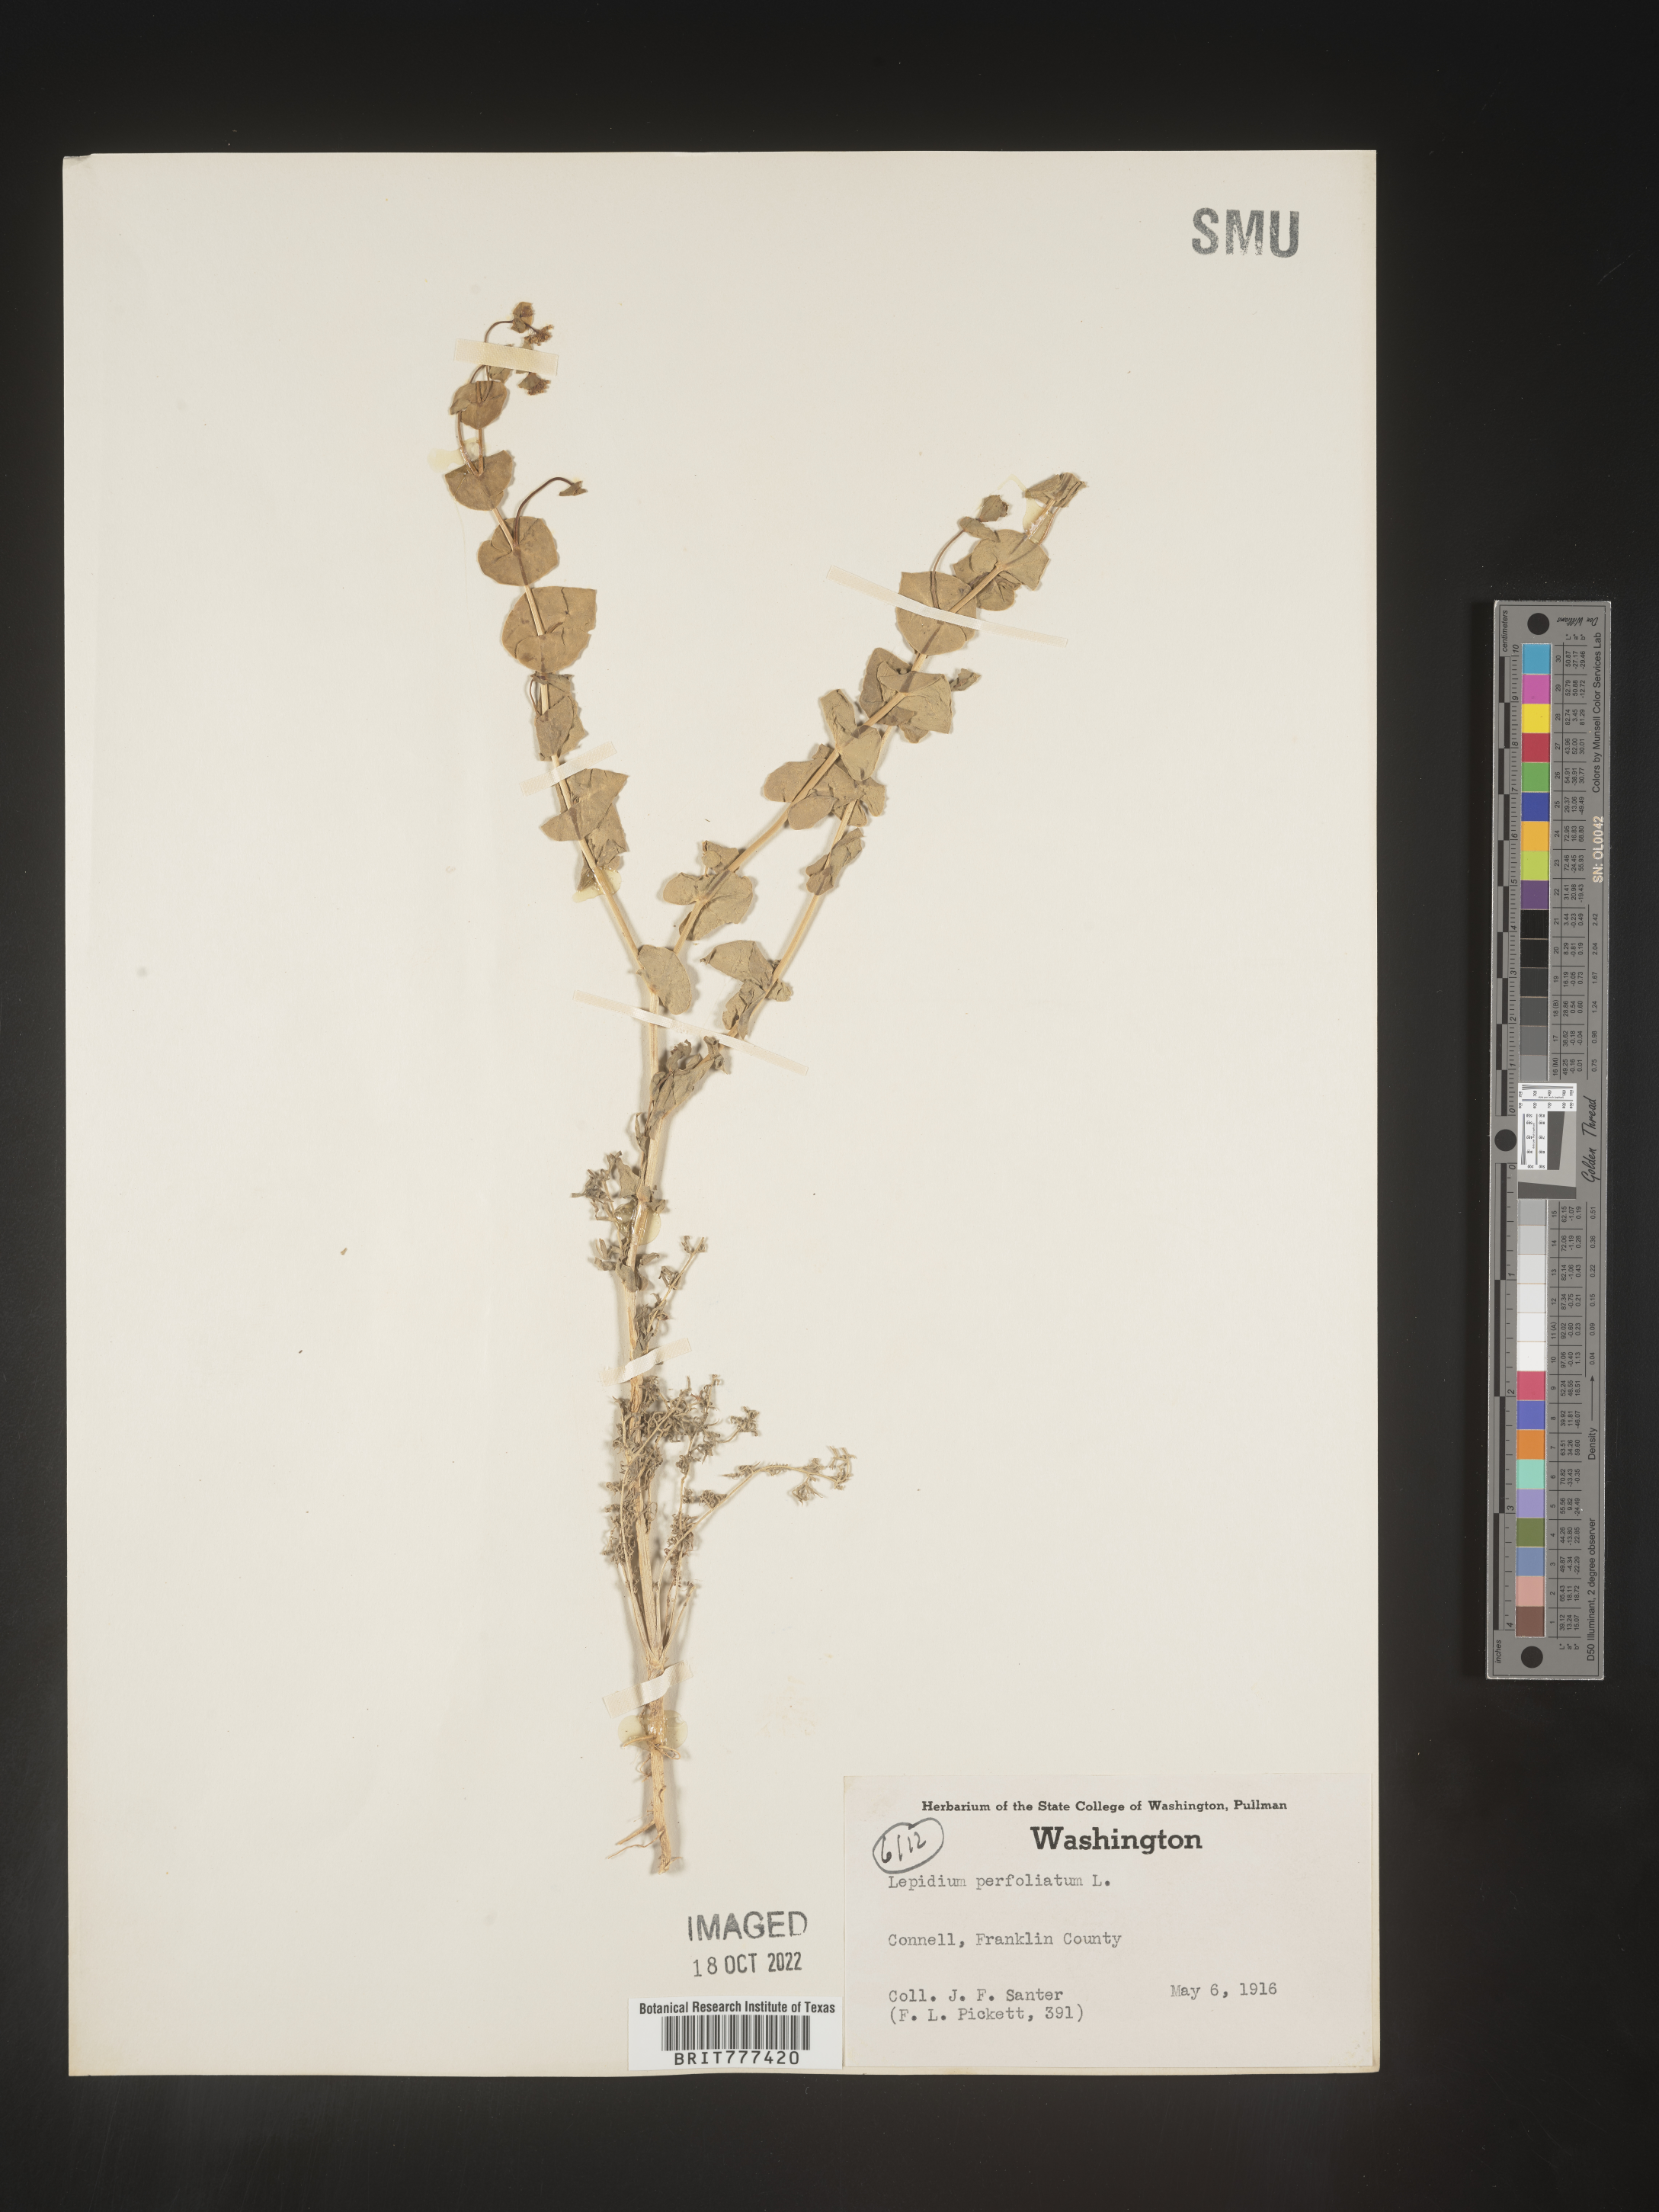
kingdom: Plantae
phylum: Tracheophyta
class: Magnoliopsida
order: Brassicales
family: Brassicaceae
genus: Lepidium
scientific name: Lepidium perfoliatum
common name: Perfoliate pepperwort
